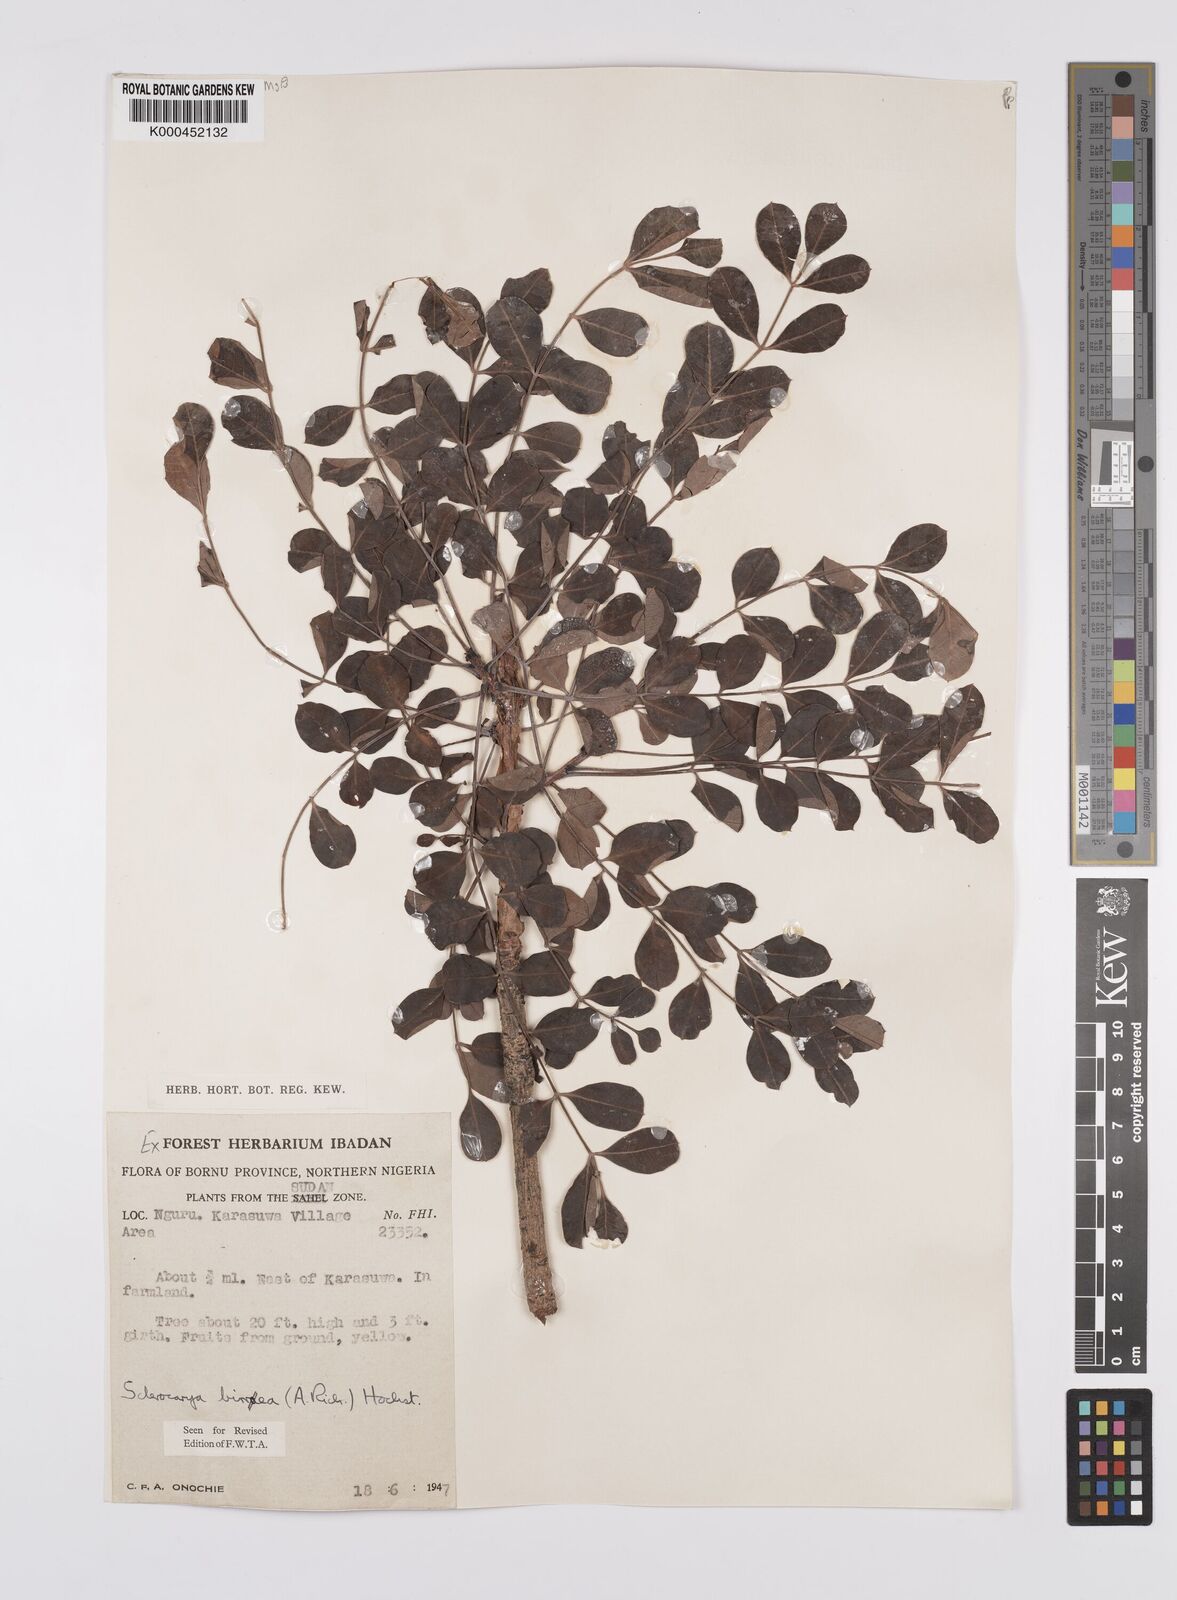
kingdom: Plantae
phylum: Tracheophyta
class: Magnoliopsida
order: Sapindales
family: Anacardiaceae
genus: Sclerocarya
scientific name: Sclerocarya birrea
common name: Marula
